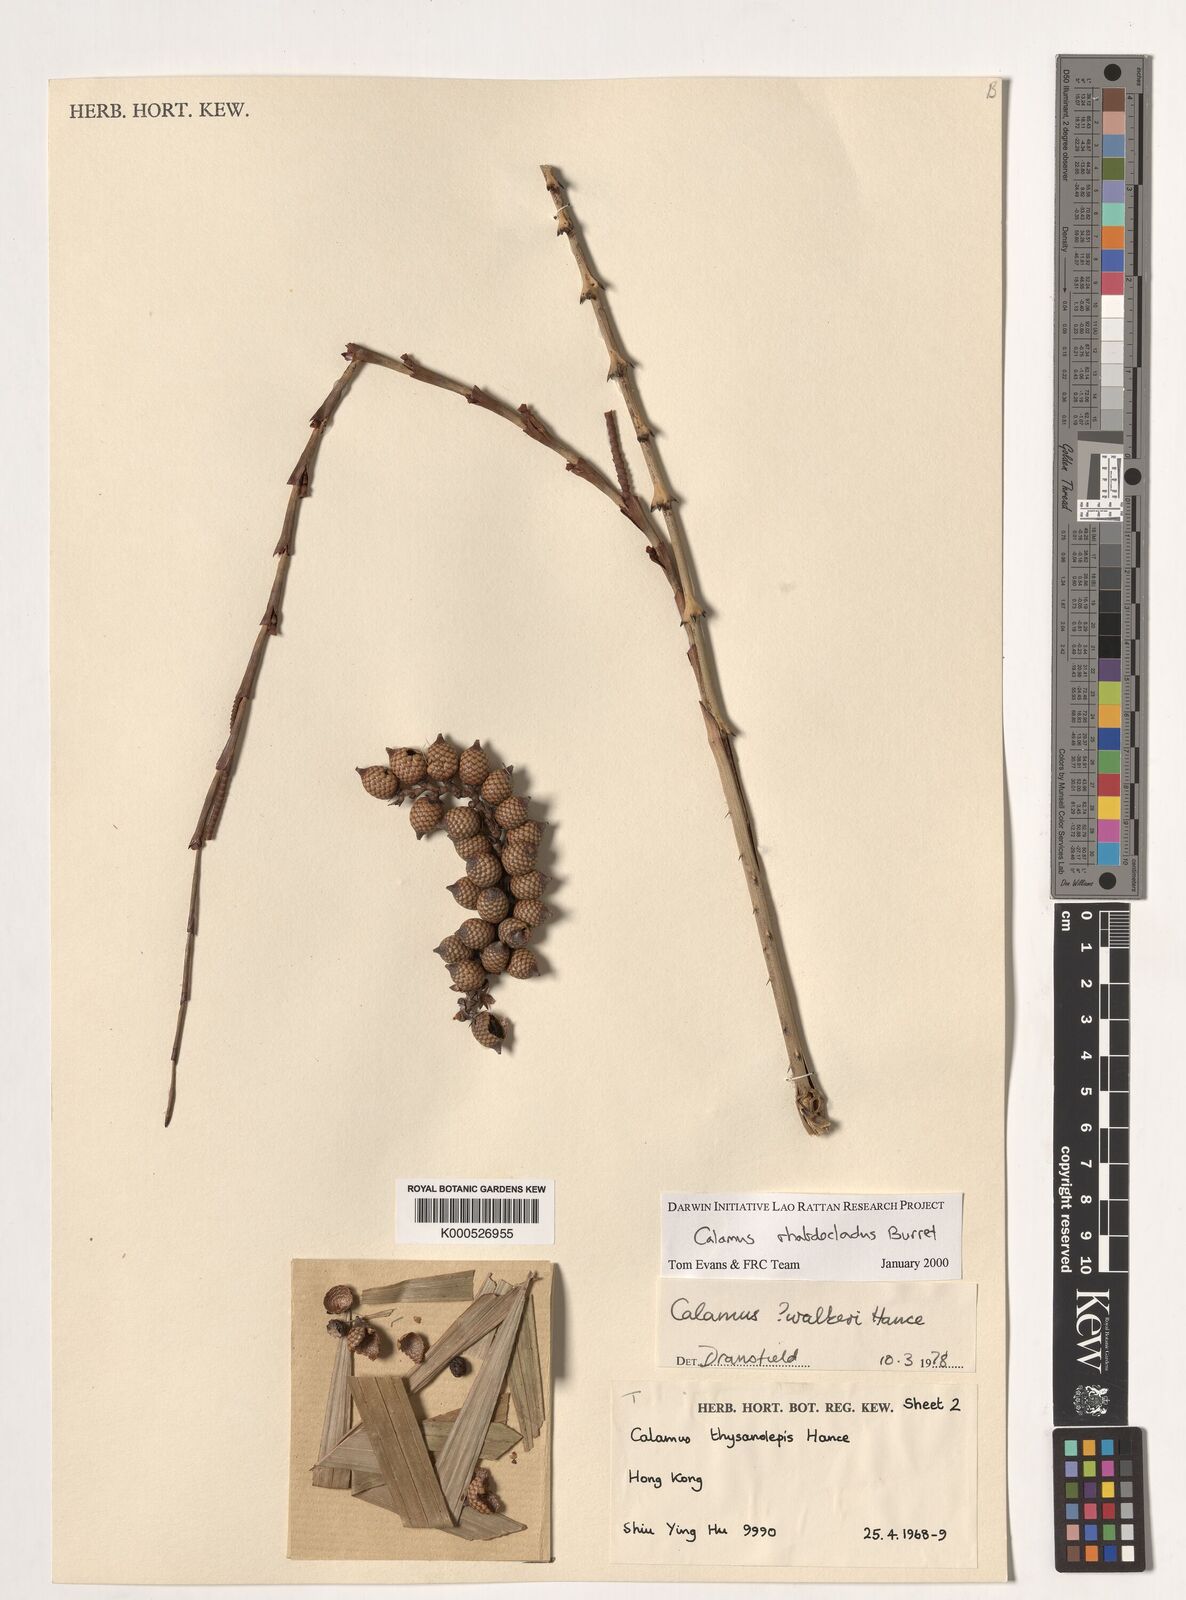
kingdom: Plantae
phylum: Tracheophyta
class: Liliopsida
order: Arecales
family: Arecaceae
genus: Calamus
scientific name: Calamus rhabdocladus
